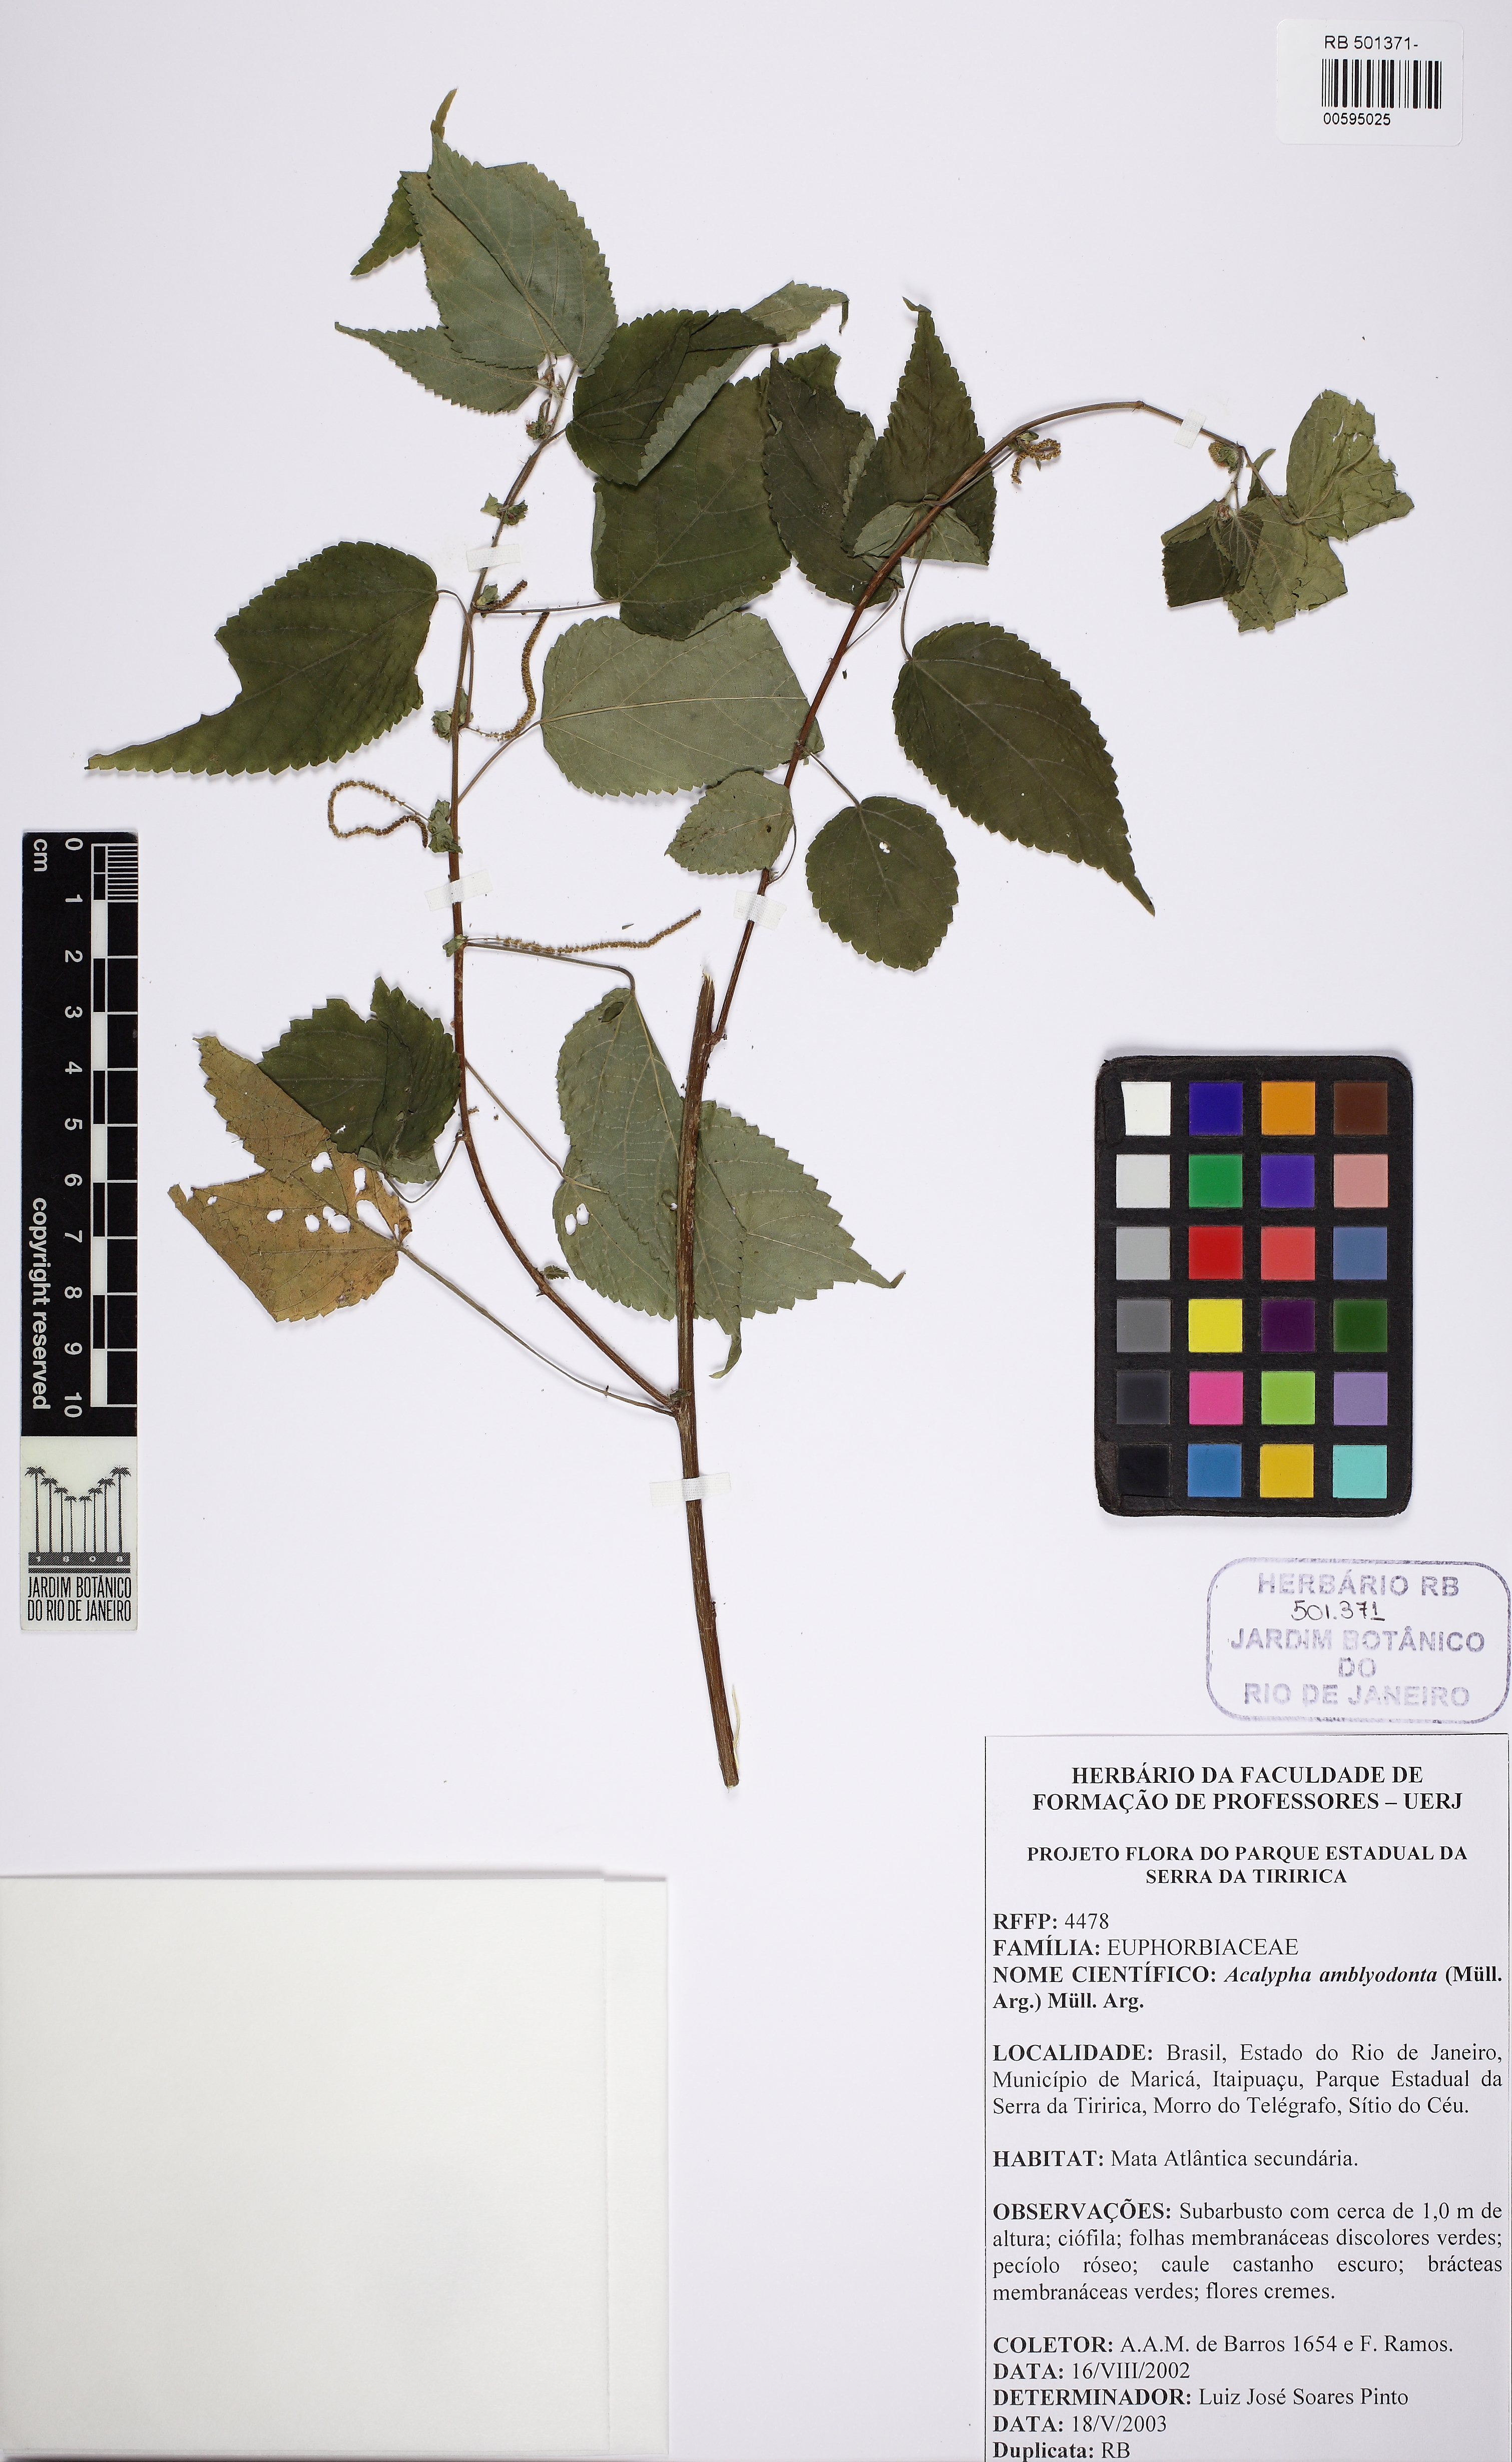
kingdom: Plantae
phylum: Tracheophyta
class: Magnoliopsida
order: Malpighiales
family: Euphorbiaceae
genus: Acalypha
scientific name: Acalypha amblyodonta
